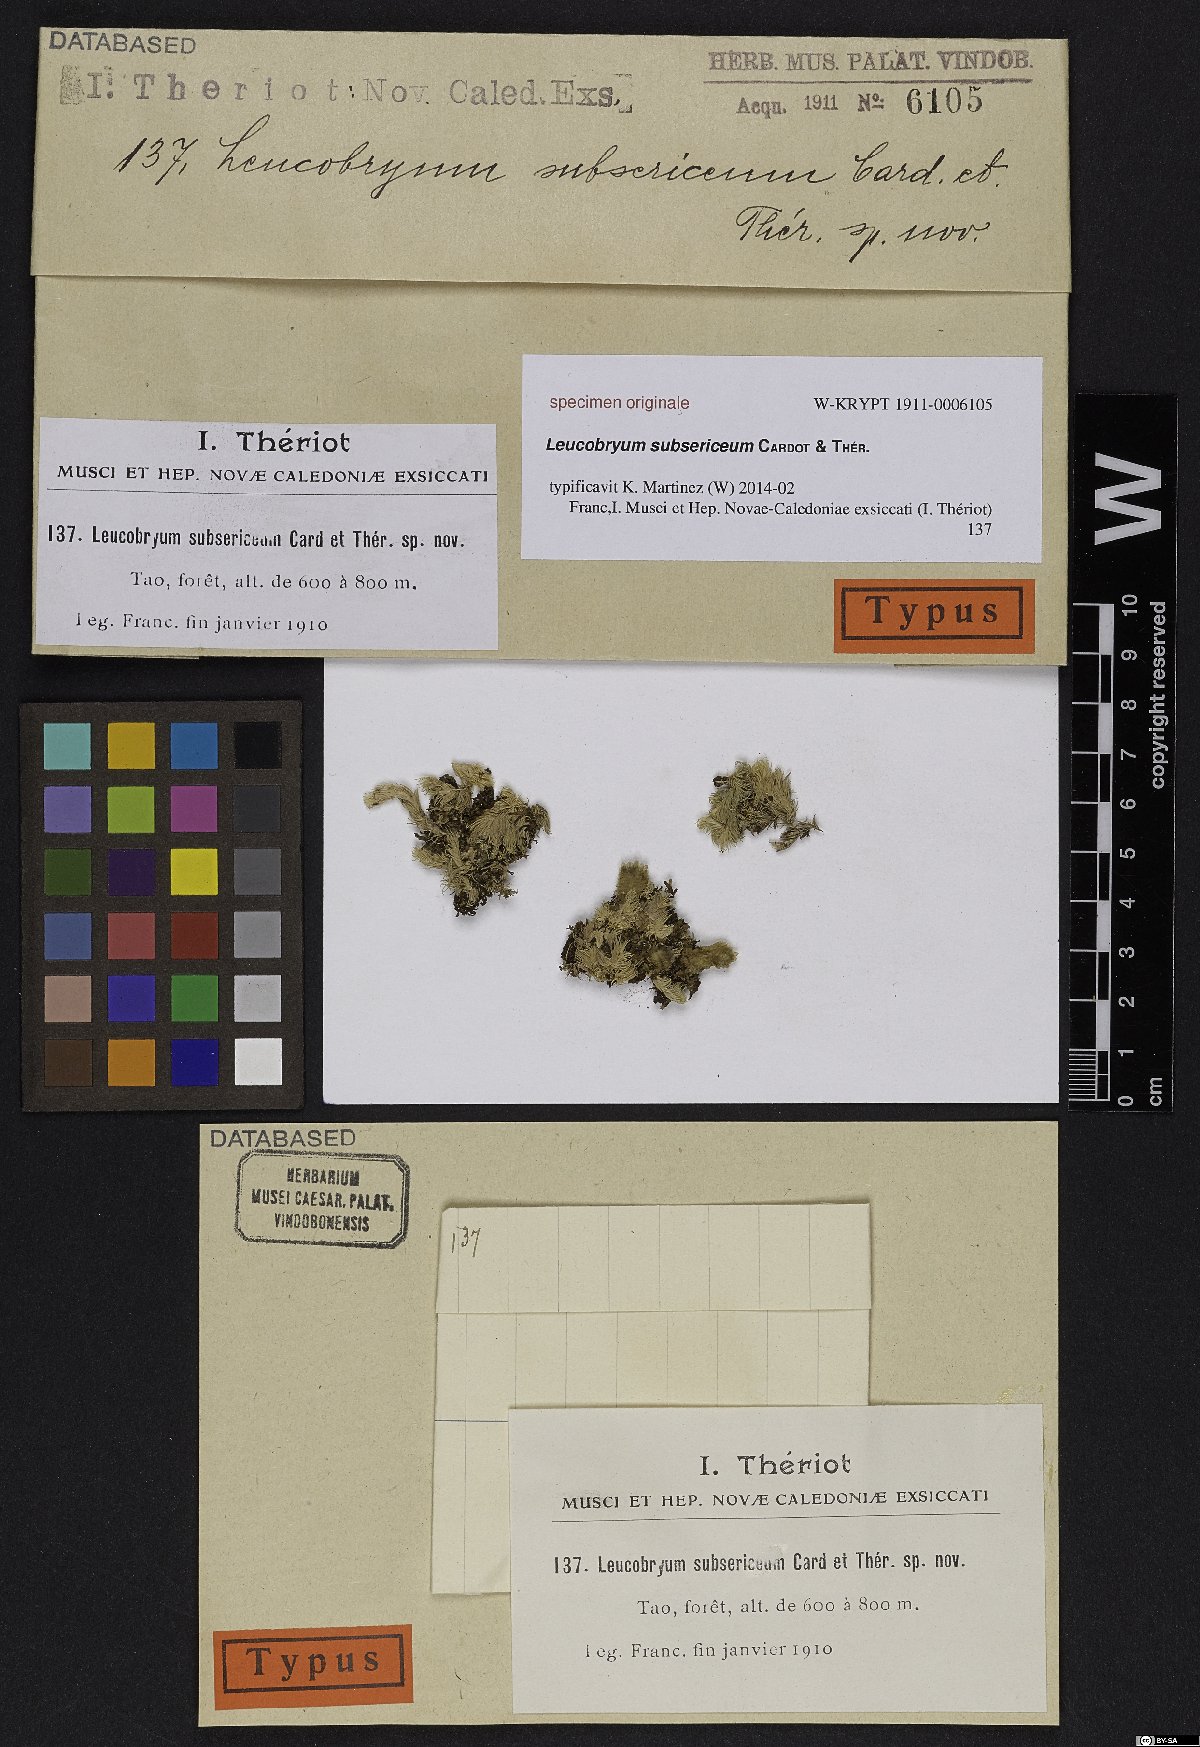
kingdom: Plantae
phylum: Bryophyta
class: Bryopsida
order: Dicranales
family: Leucobryaceae
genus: Leucobryum
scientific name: Leucobryum neocaledonicum
